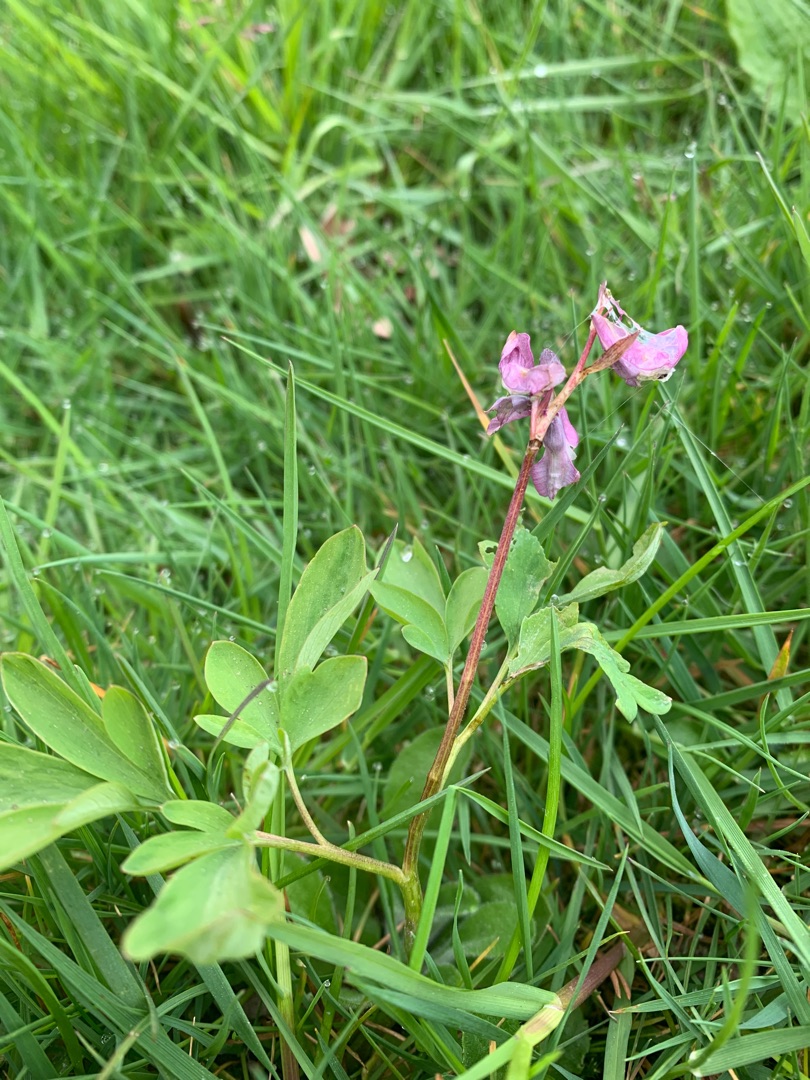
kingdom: Plantae
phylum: Tracheophyta
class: Magnoliopsida
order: Ranunculales
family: Papaveraceae
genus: Corydalis
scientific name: Corydalis cava
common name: Hulrodet lærkespore
